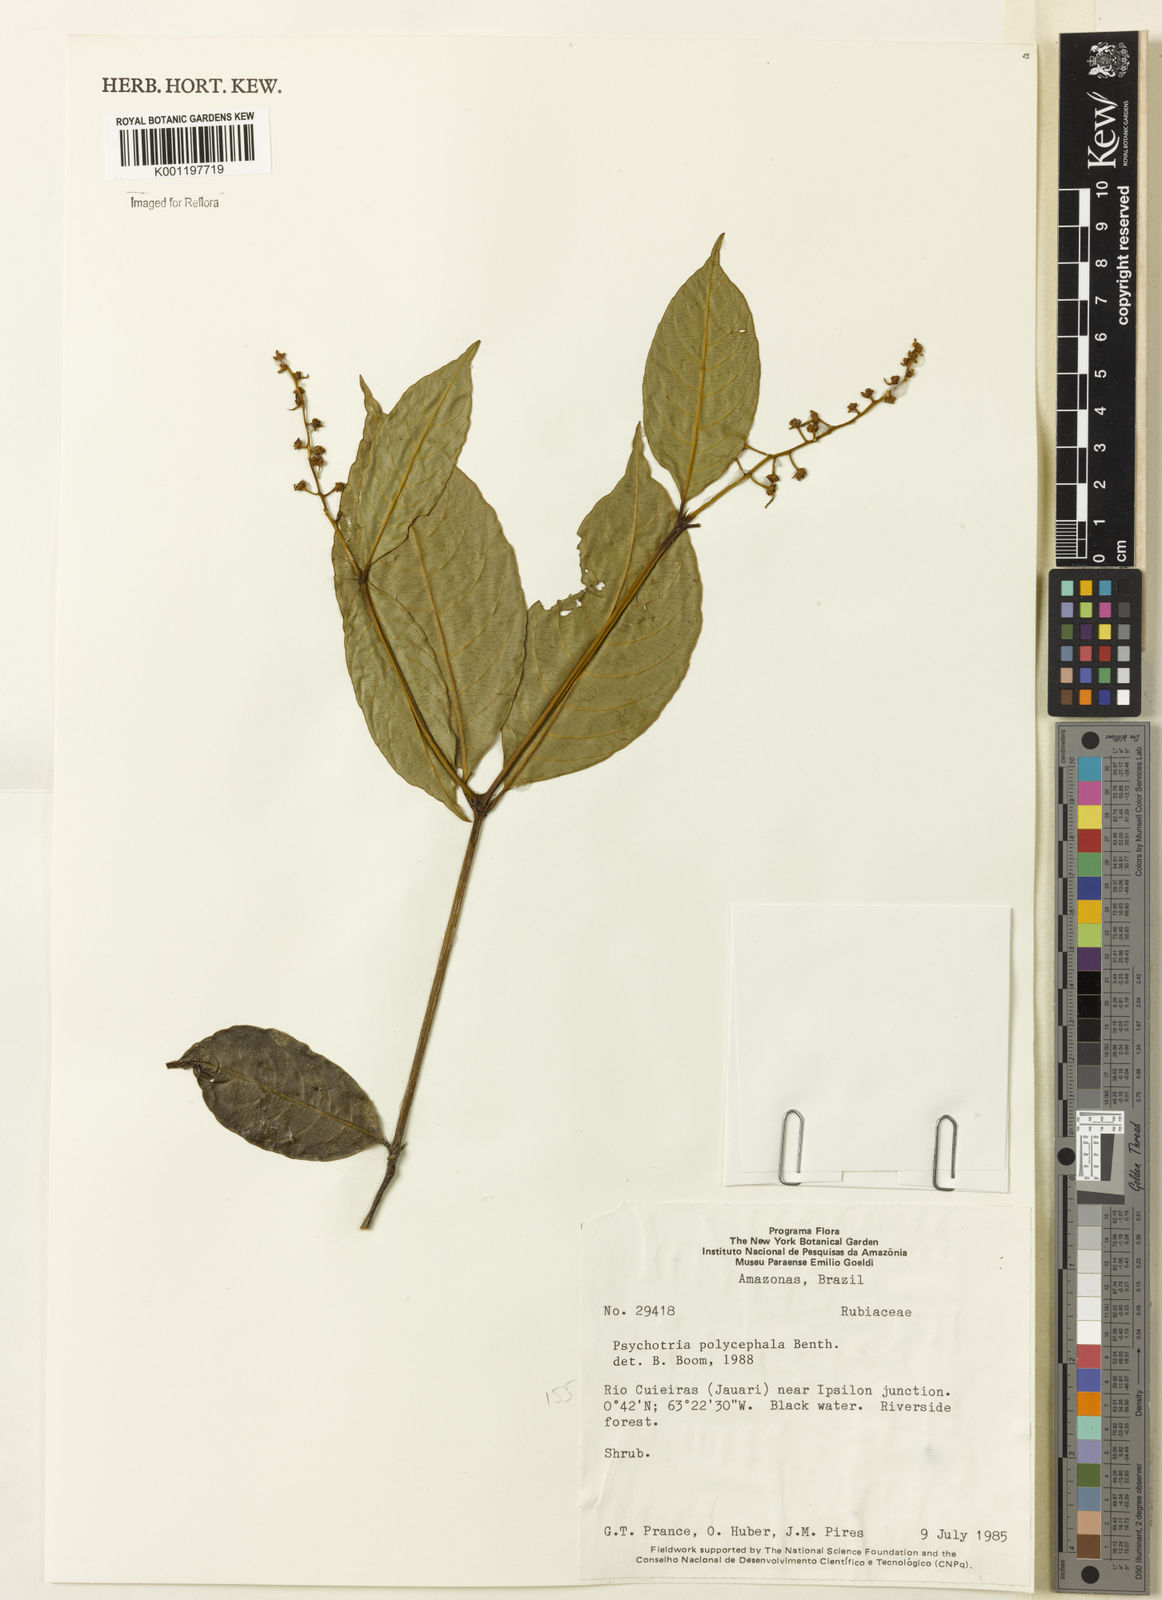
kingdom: Plantae
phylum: Tracheophyta
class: Magnoliopsida
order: Gentianales
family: Rubiaceae
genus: Palicourea
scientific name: Palicourea polycephala
